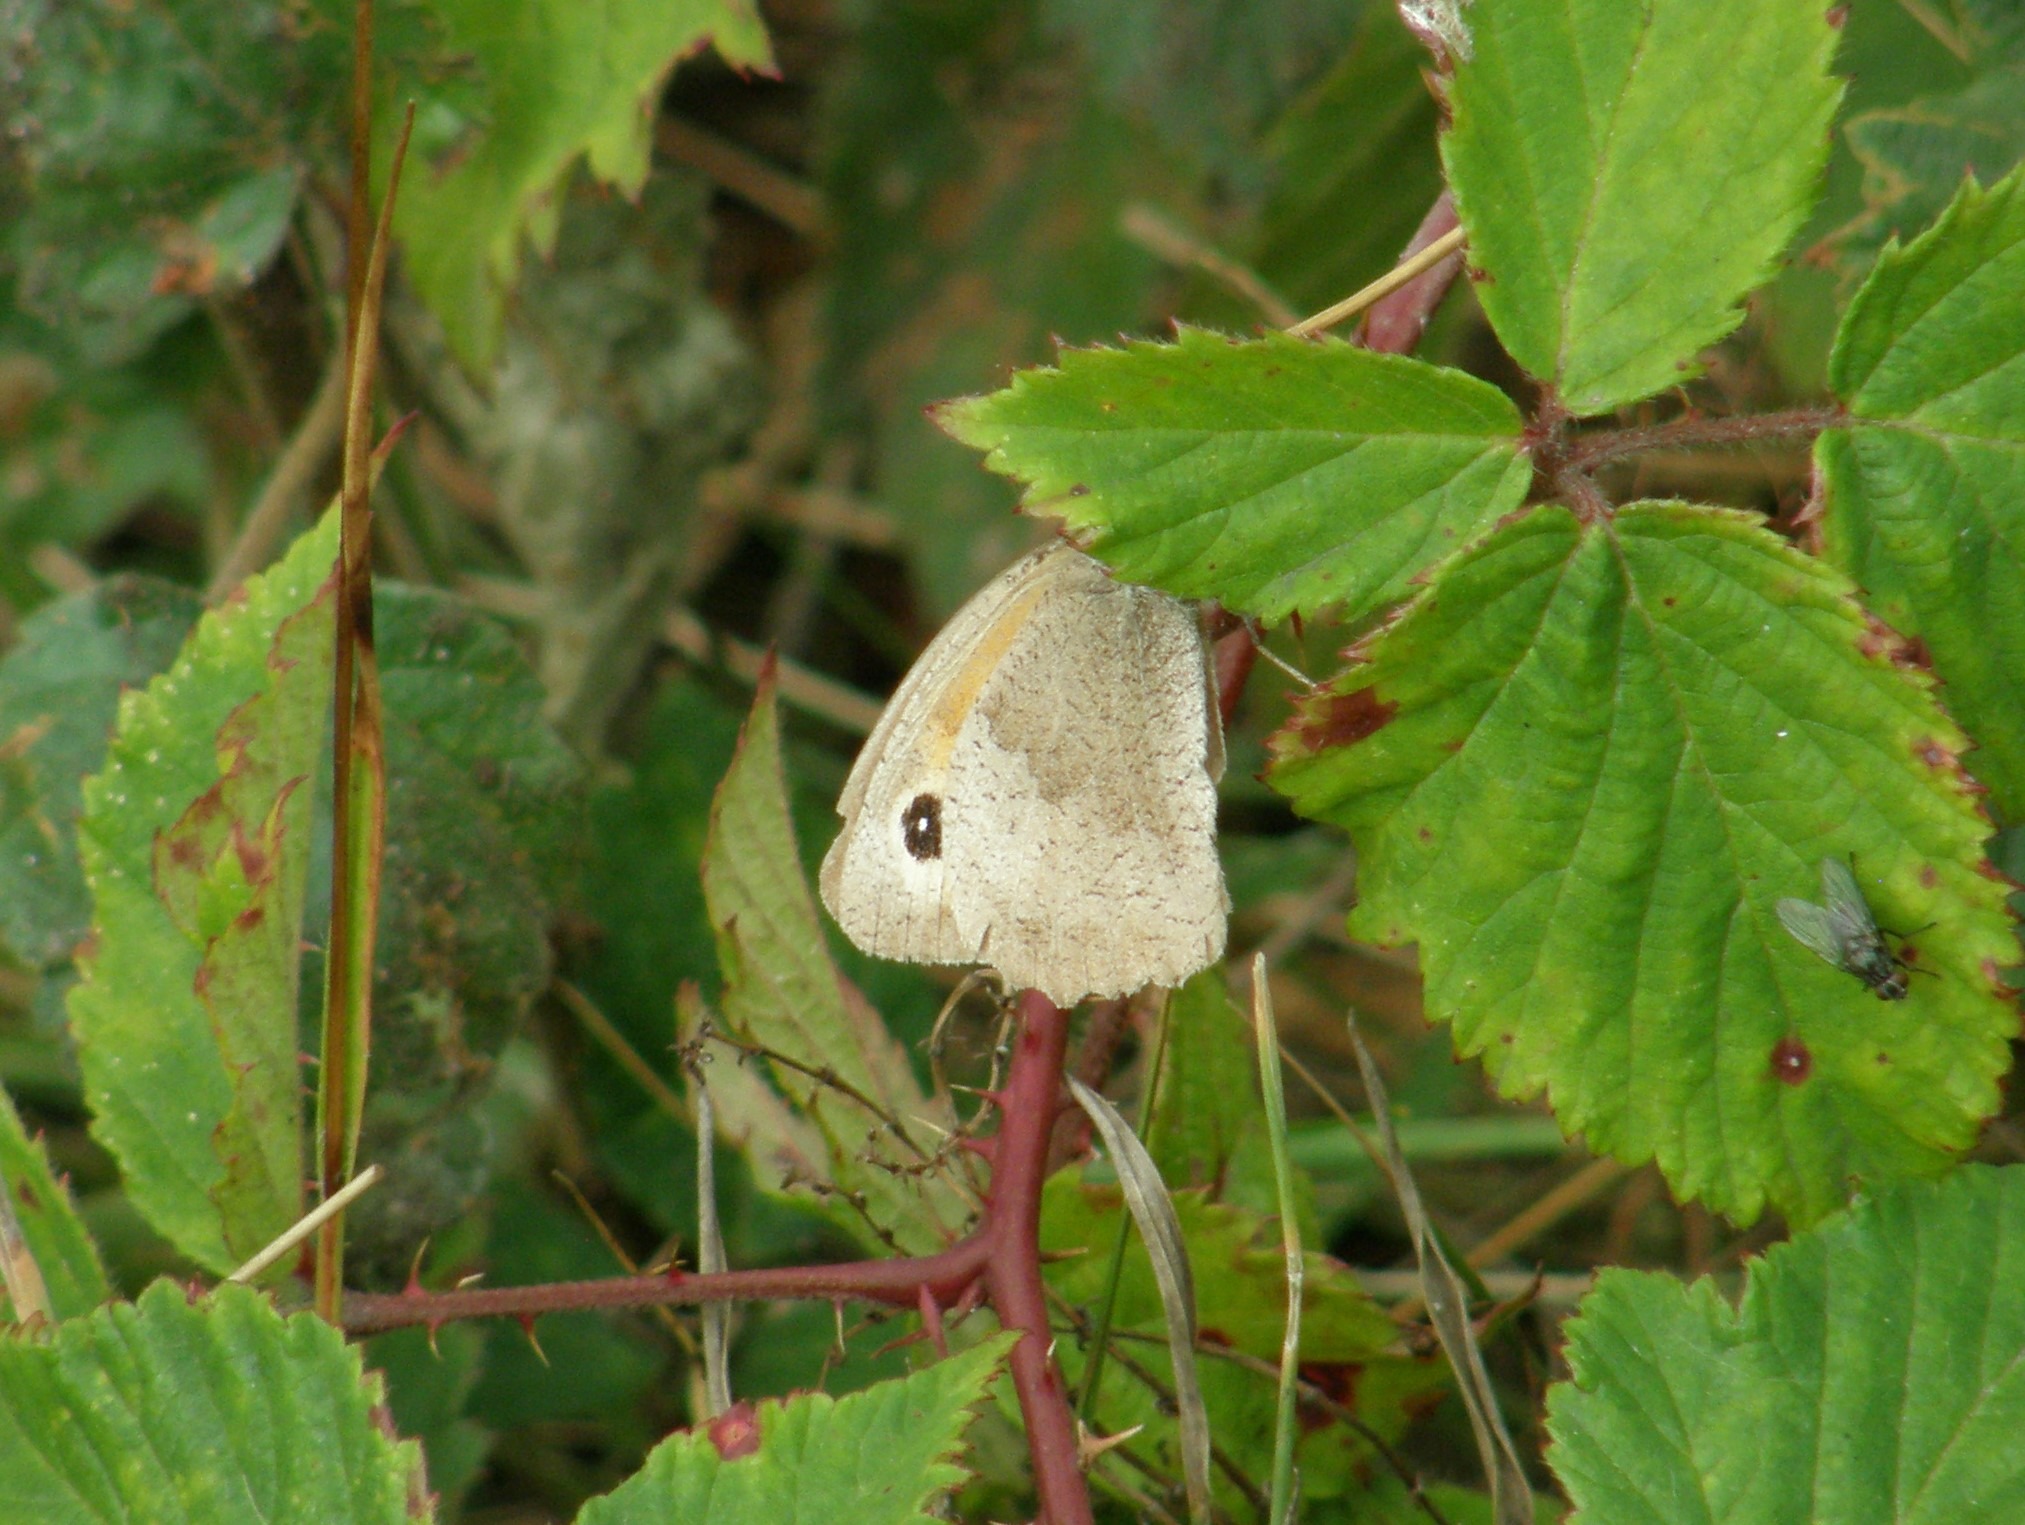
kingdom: Animalia
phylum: Arthropoda
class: Insecta
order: Lepidoptera
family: Nymphalidae
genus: Maniola
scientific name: Maniola jurtina
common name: Græsrandøje
